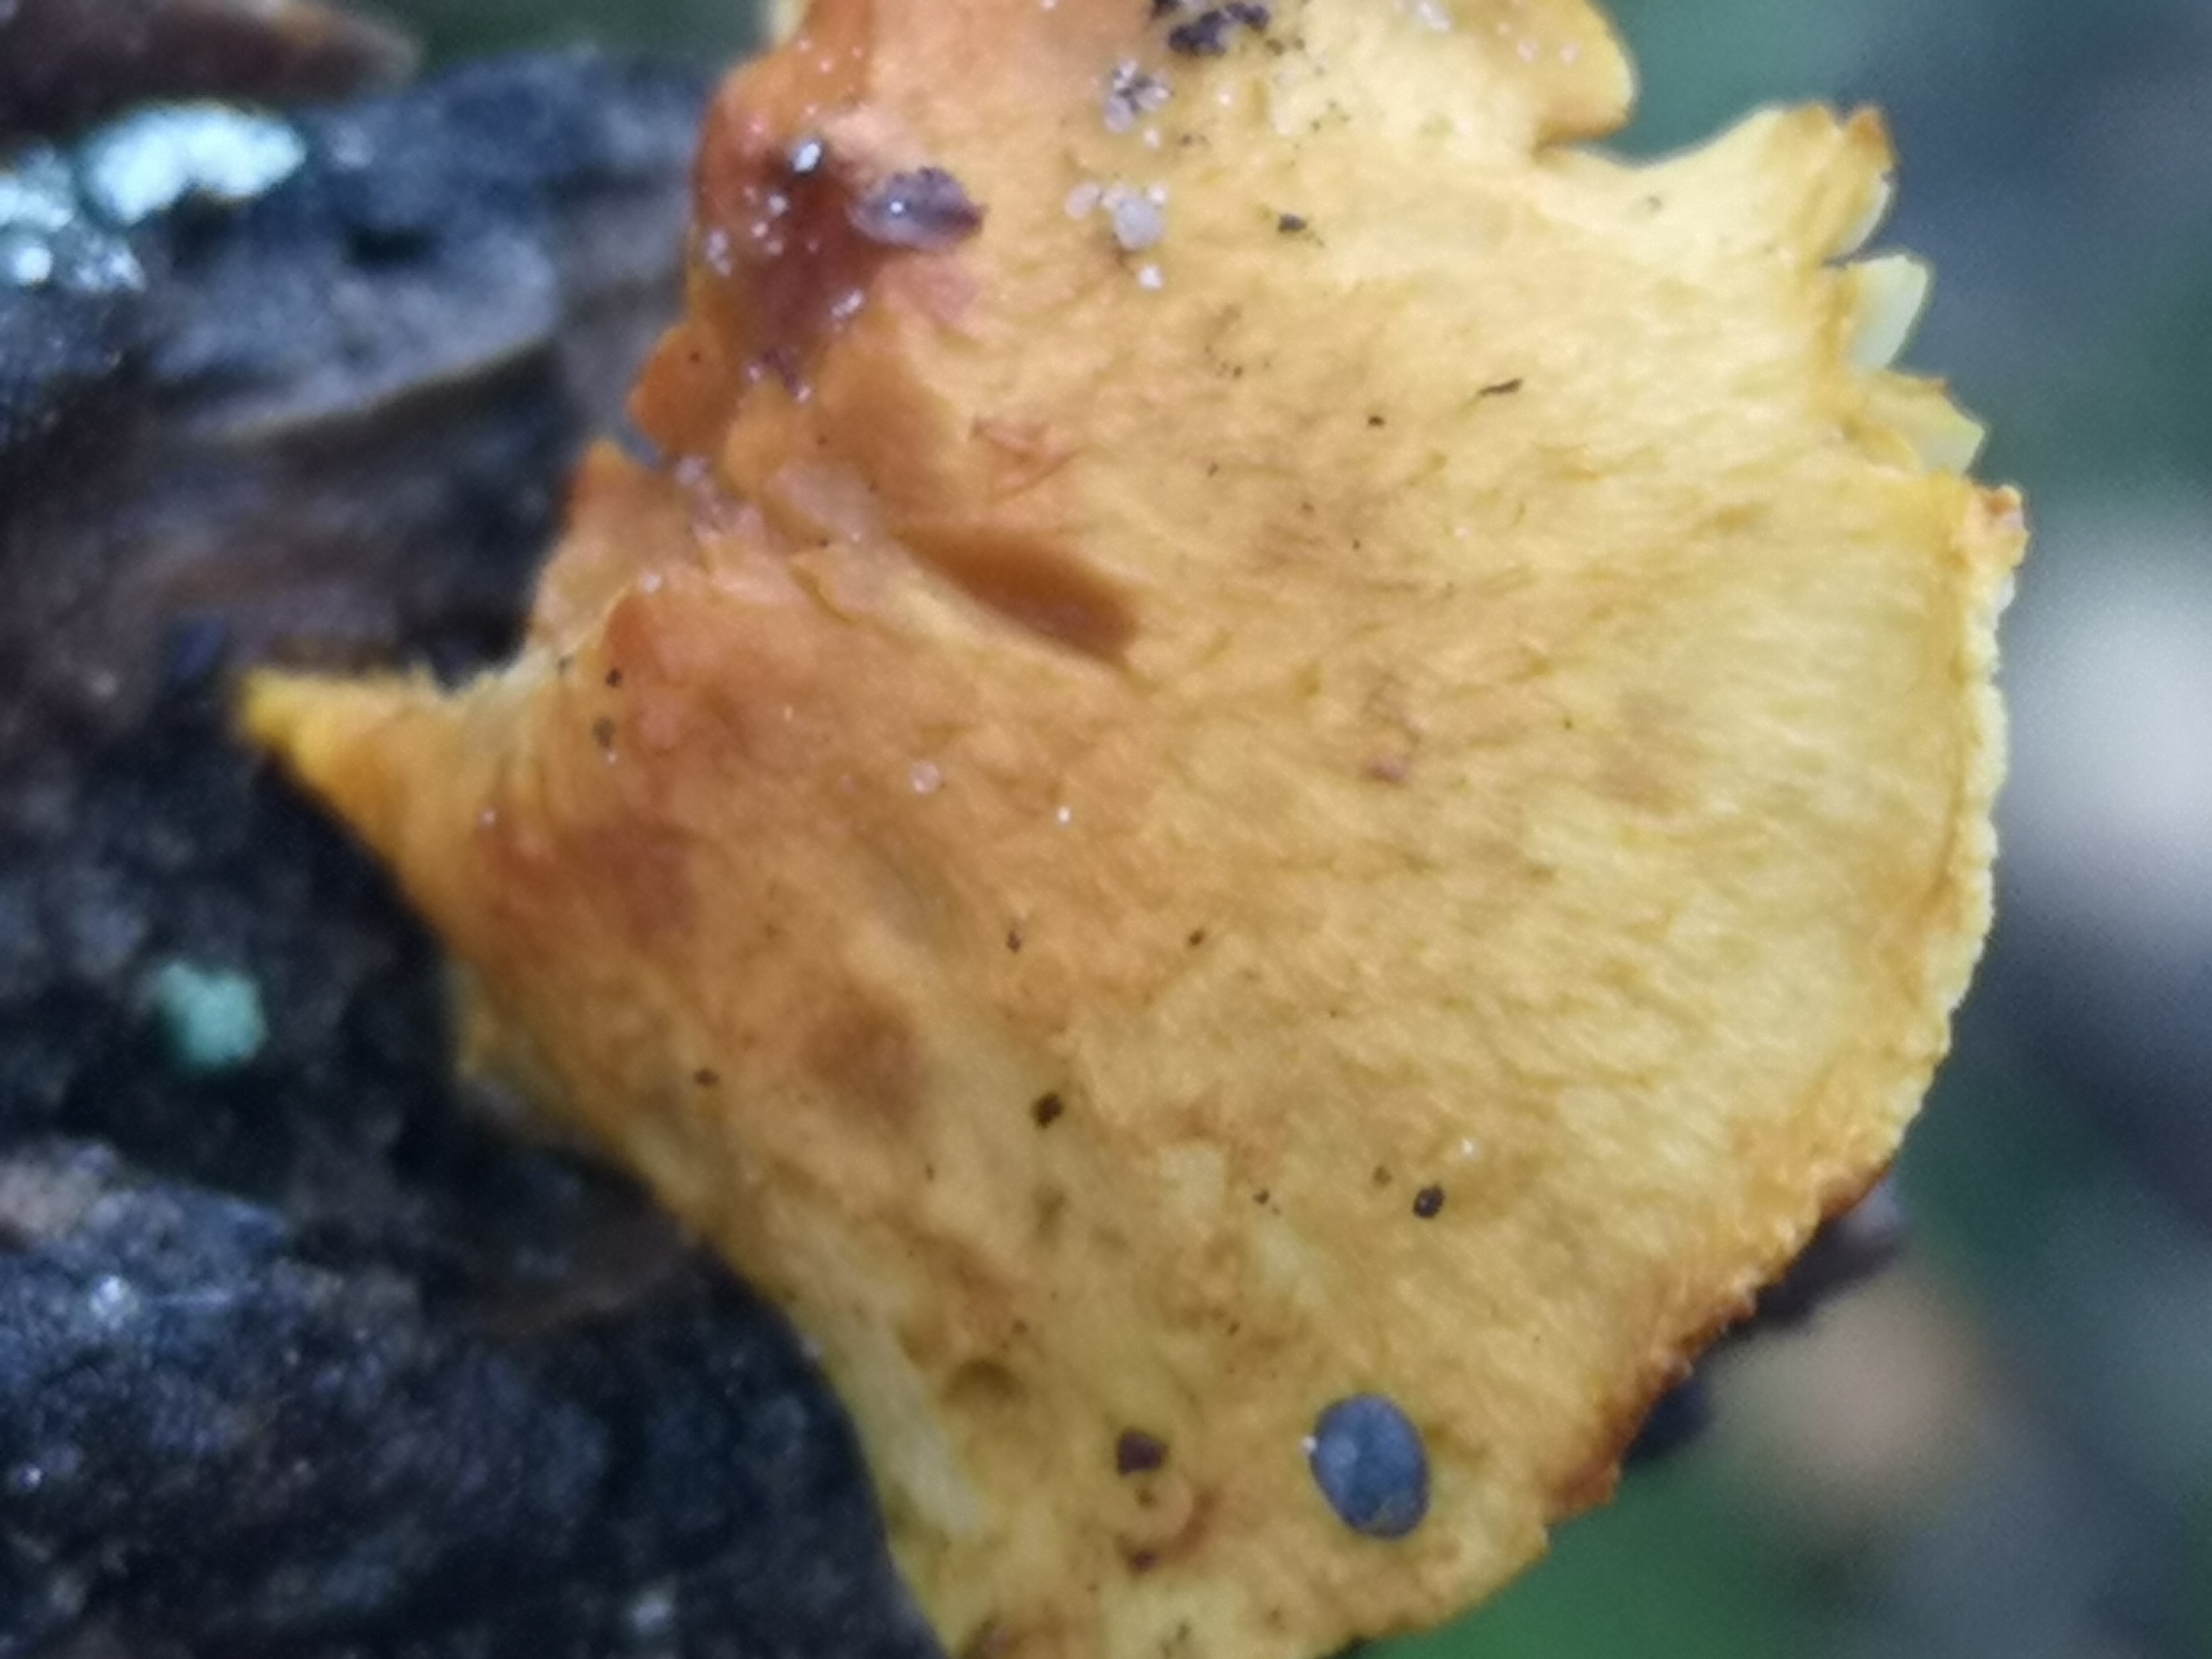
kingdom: Fungi
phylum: Basidiomycota
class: Agaricomycetes
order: Agaricales
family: Strophariaceae
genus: Pholiota
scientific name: Pholiota tuberculosa
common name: finskællet skælhat
